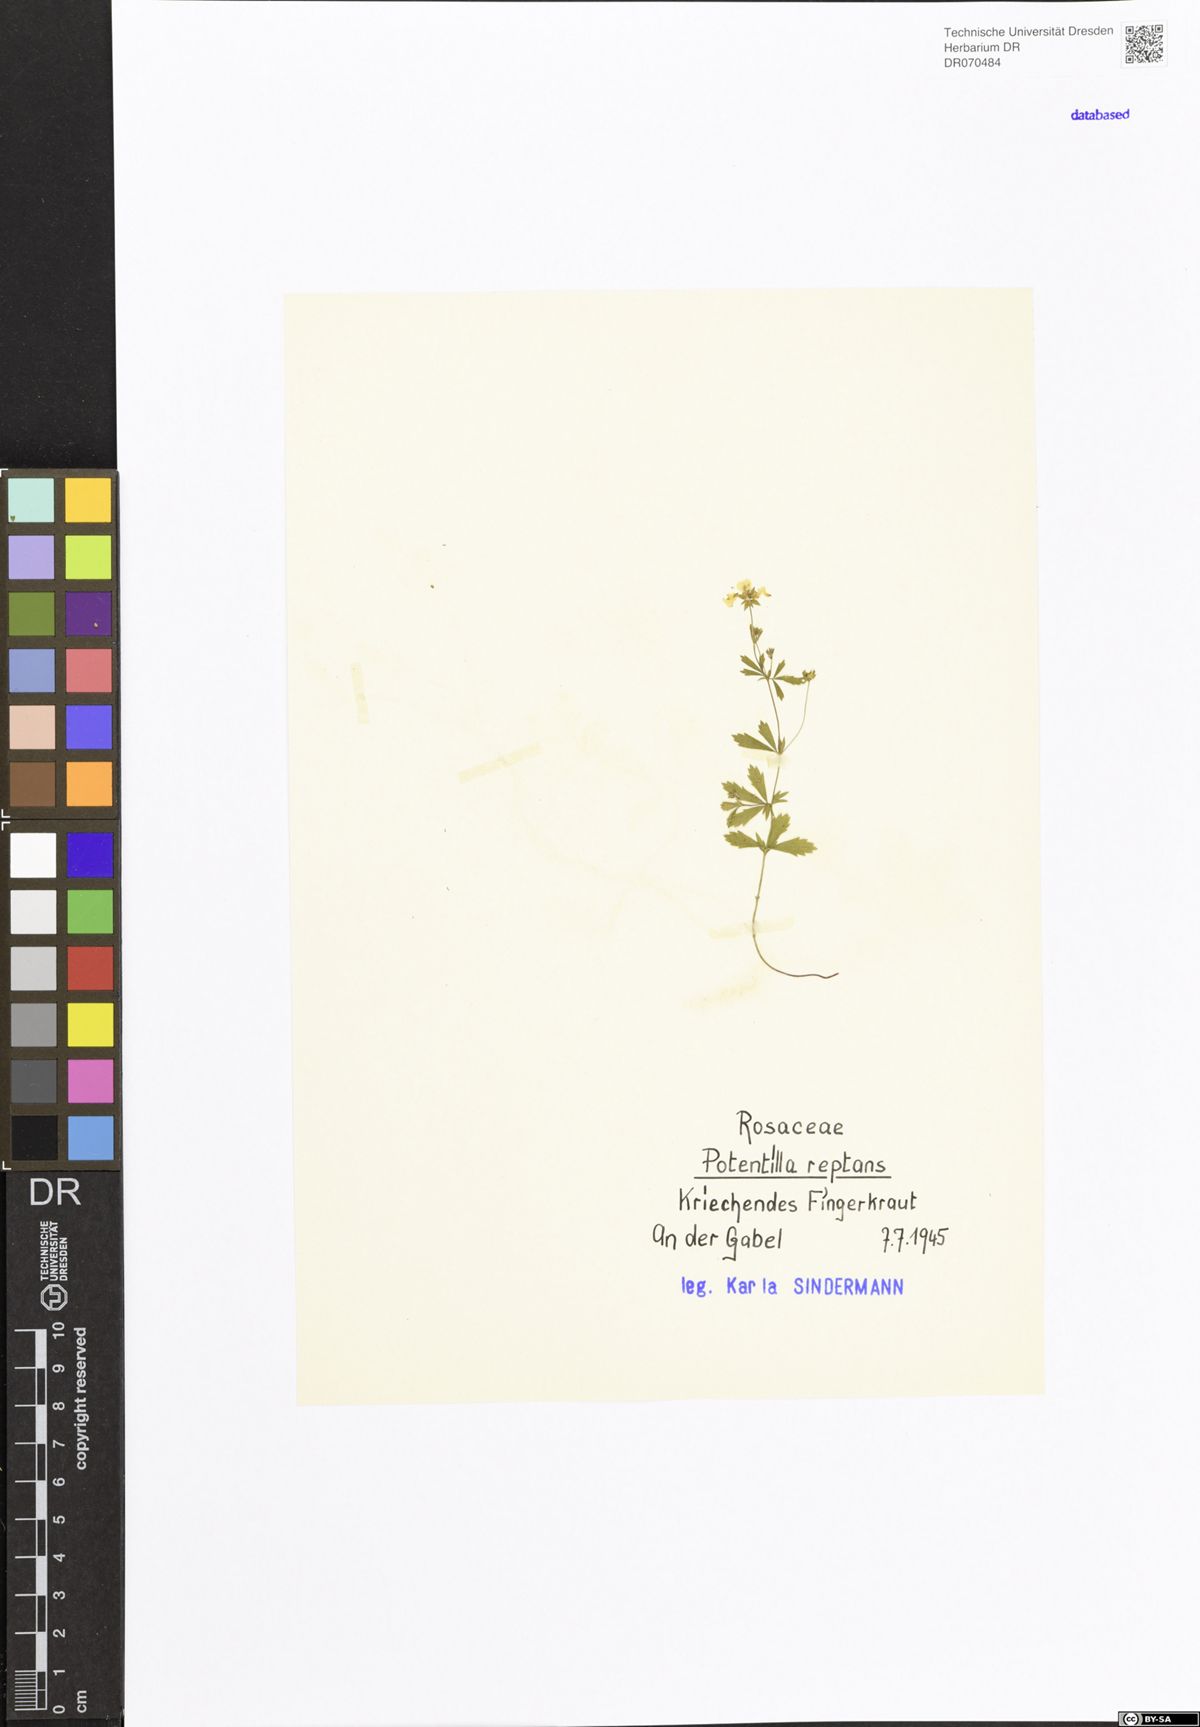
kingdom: Plantae
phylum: Tracheophyta
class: Magnoliopsida
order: Rosales
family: Rosaceae
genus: Potentilla
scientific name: Potentilla reptans
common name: Creeping cinquefoil
